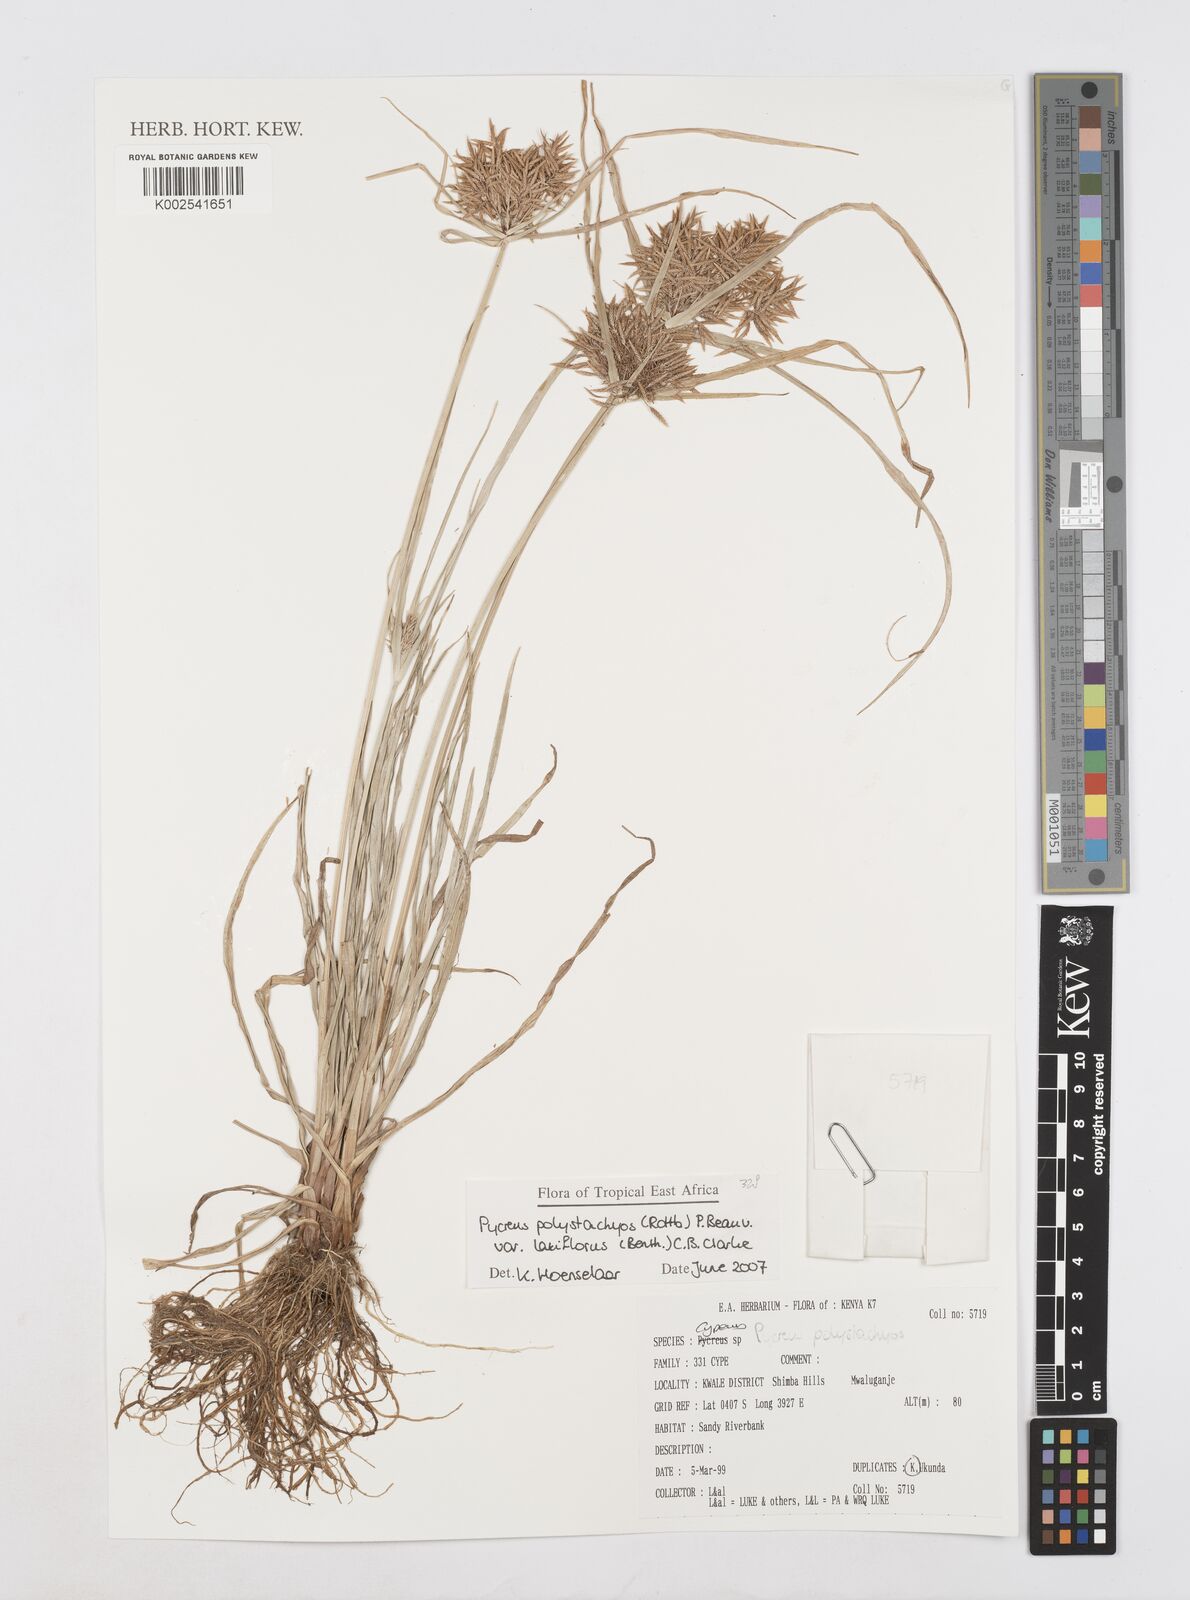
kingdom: Plantae
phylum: Tracheophyta
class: Liliopsida
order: Poales
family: Cyperaceae
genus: Cyperus
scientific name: Cyperus polystachyos
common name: Bunchy flat sedge
